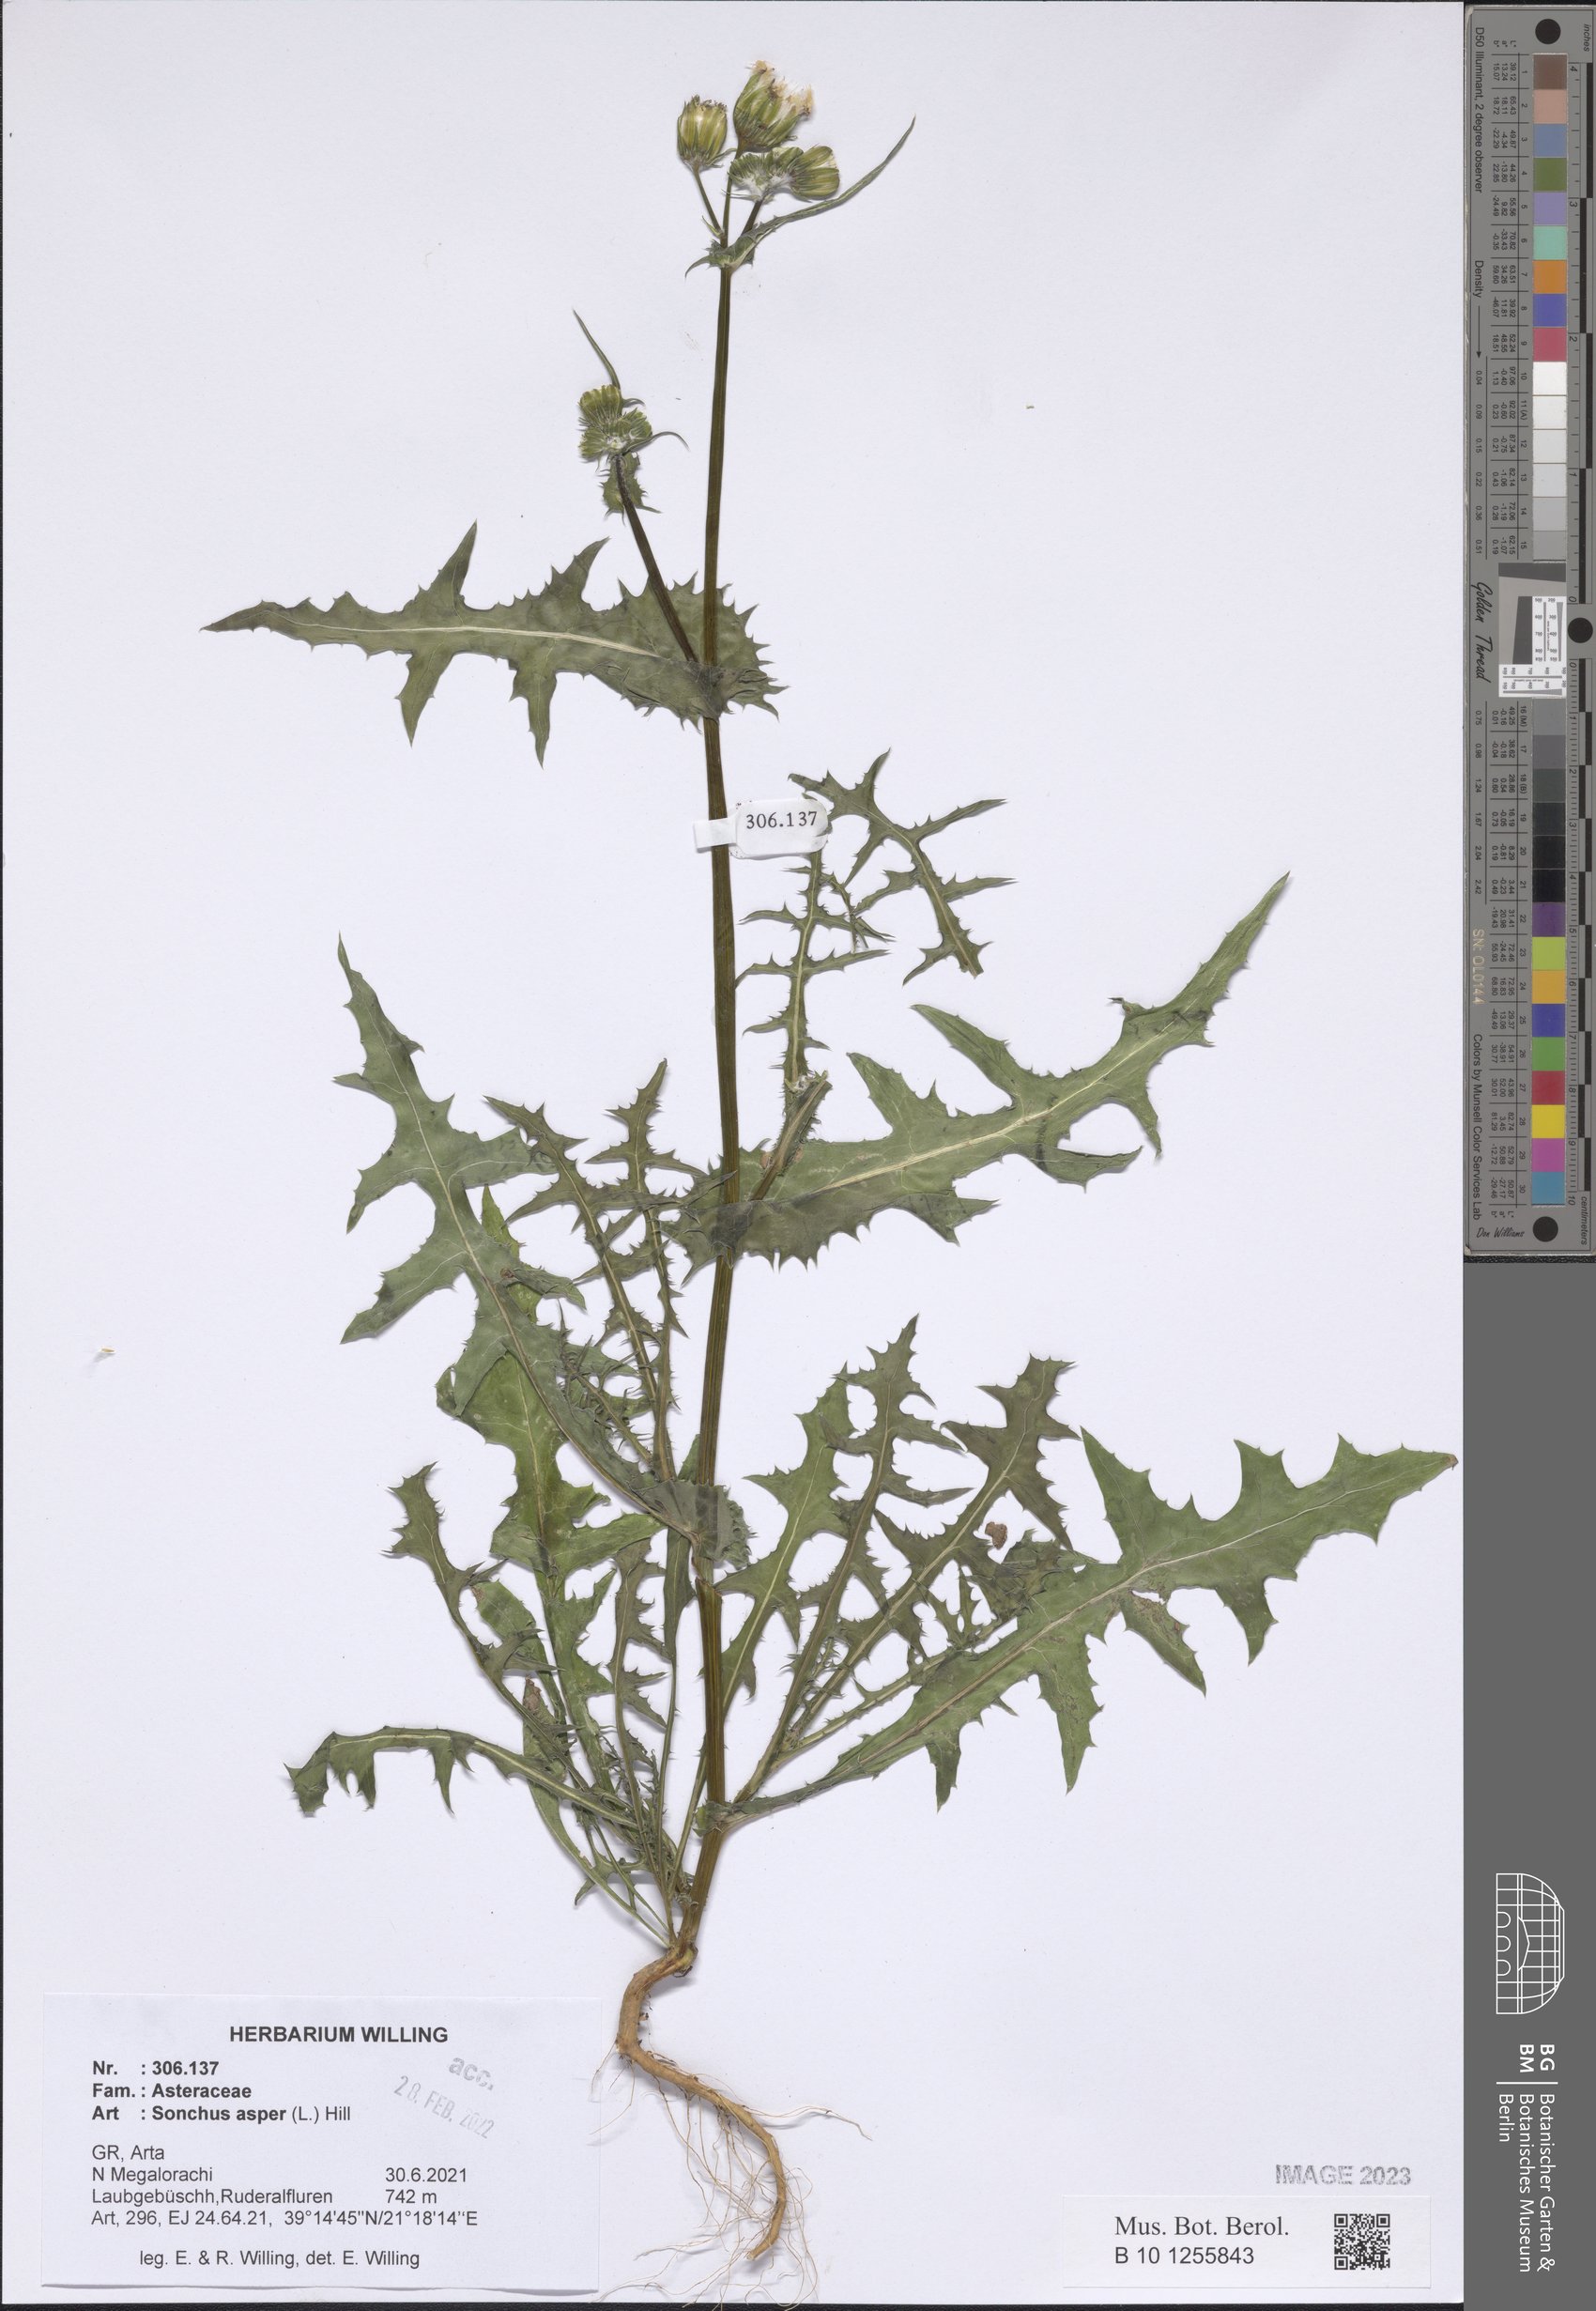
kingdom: Plantae
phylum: Tracheophyta
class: Magnoliopsida
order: Asterales
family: Asteraceae
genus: Sonchus
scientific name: Sonchus asper
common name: Prickly sow-thistle
